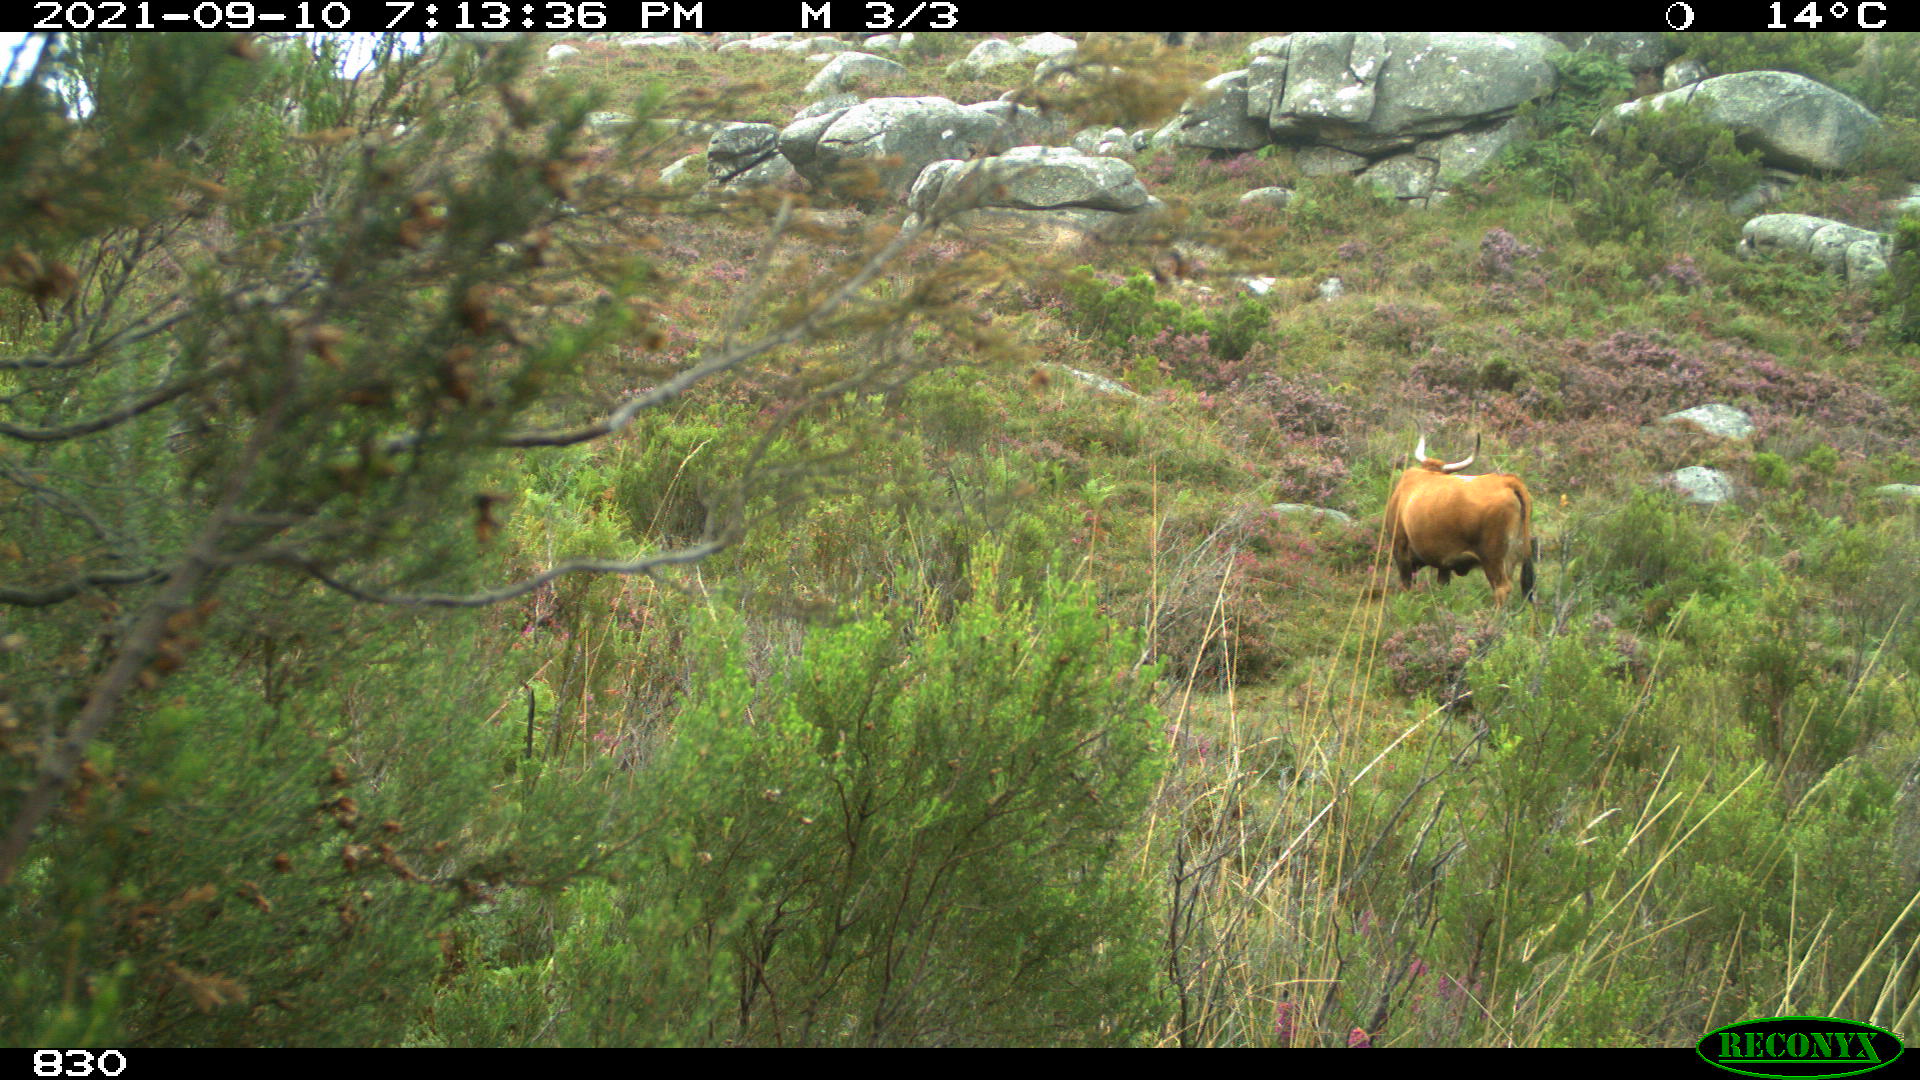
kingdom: Animalia
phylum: Chordata
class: Mammalia
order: Artiodactyla
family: Bovidae
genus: Bos
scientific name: Bos taurus
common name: Domesticated cattle
